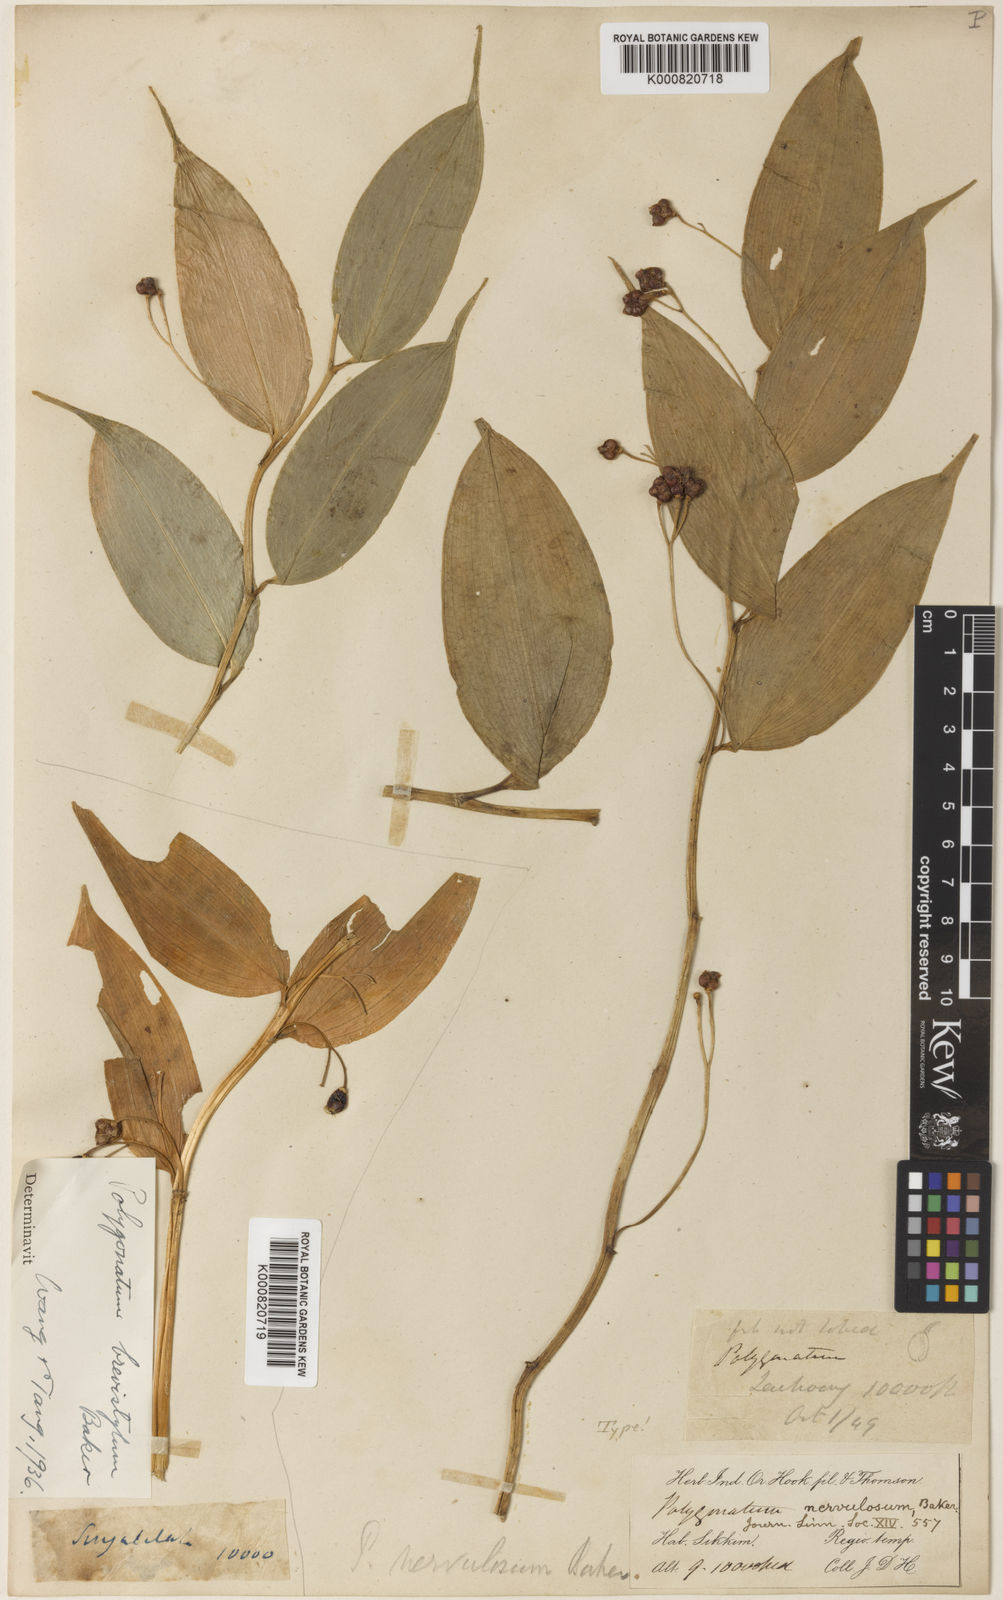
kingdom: Plantae
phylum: Tracheophyta
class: Liliopsida
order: Asparagales
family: Asparagaceae
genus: Polygonatum
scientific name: Polygonatum nervulosum
